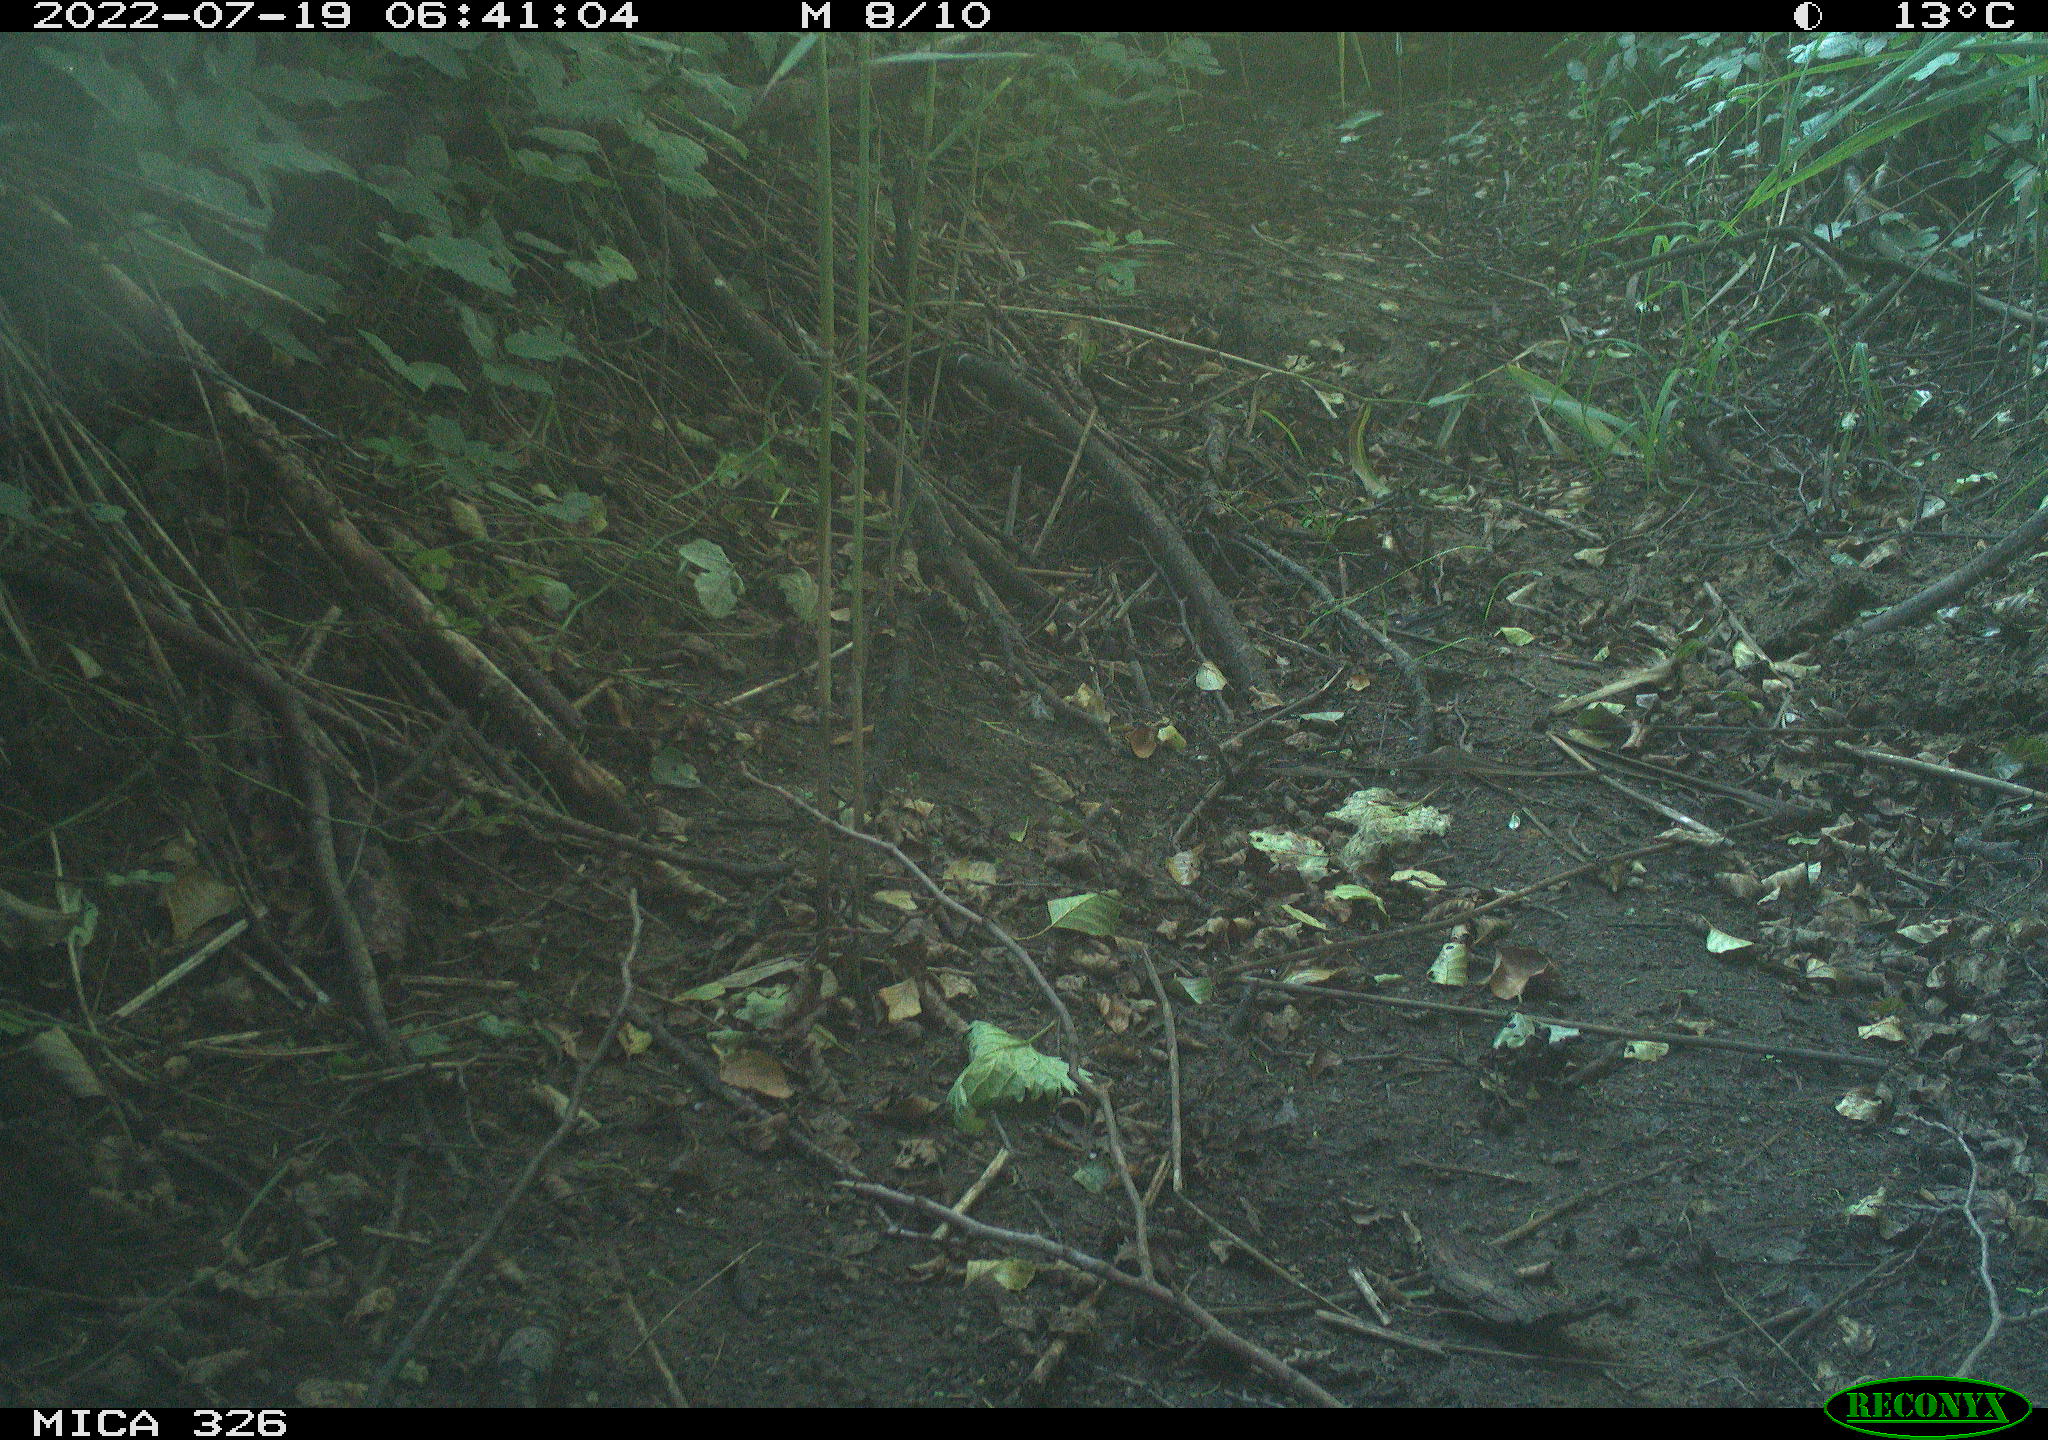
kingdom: Animalia
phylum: Chordata
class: Aves
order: Passeriformes
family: Turdidae
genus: Turdus
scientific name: Turdus philomelos
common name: Song thrush
